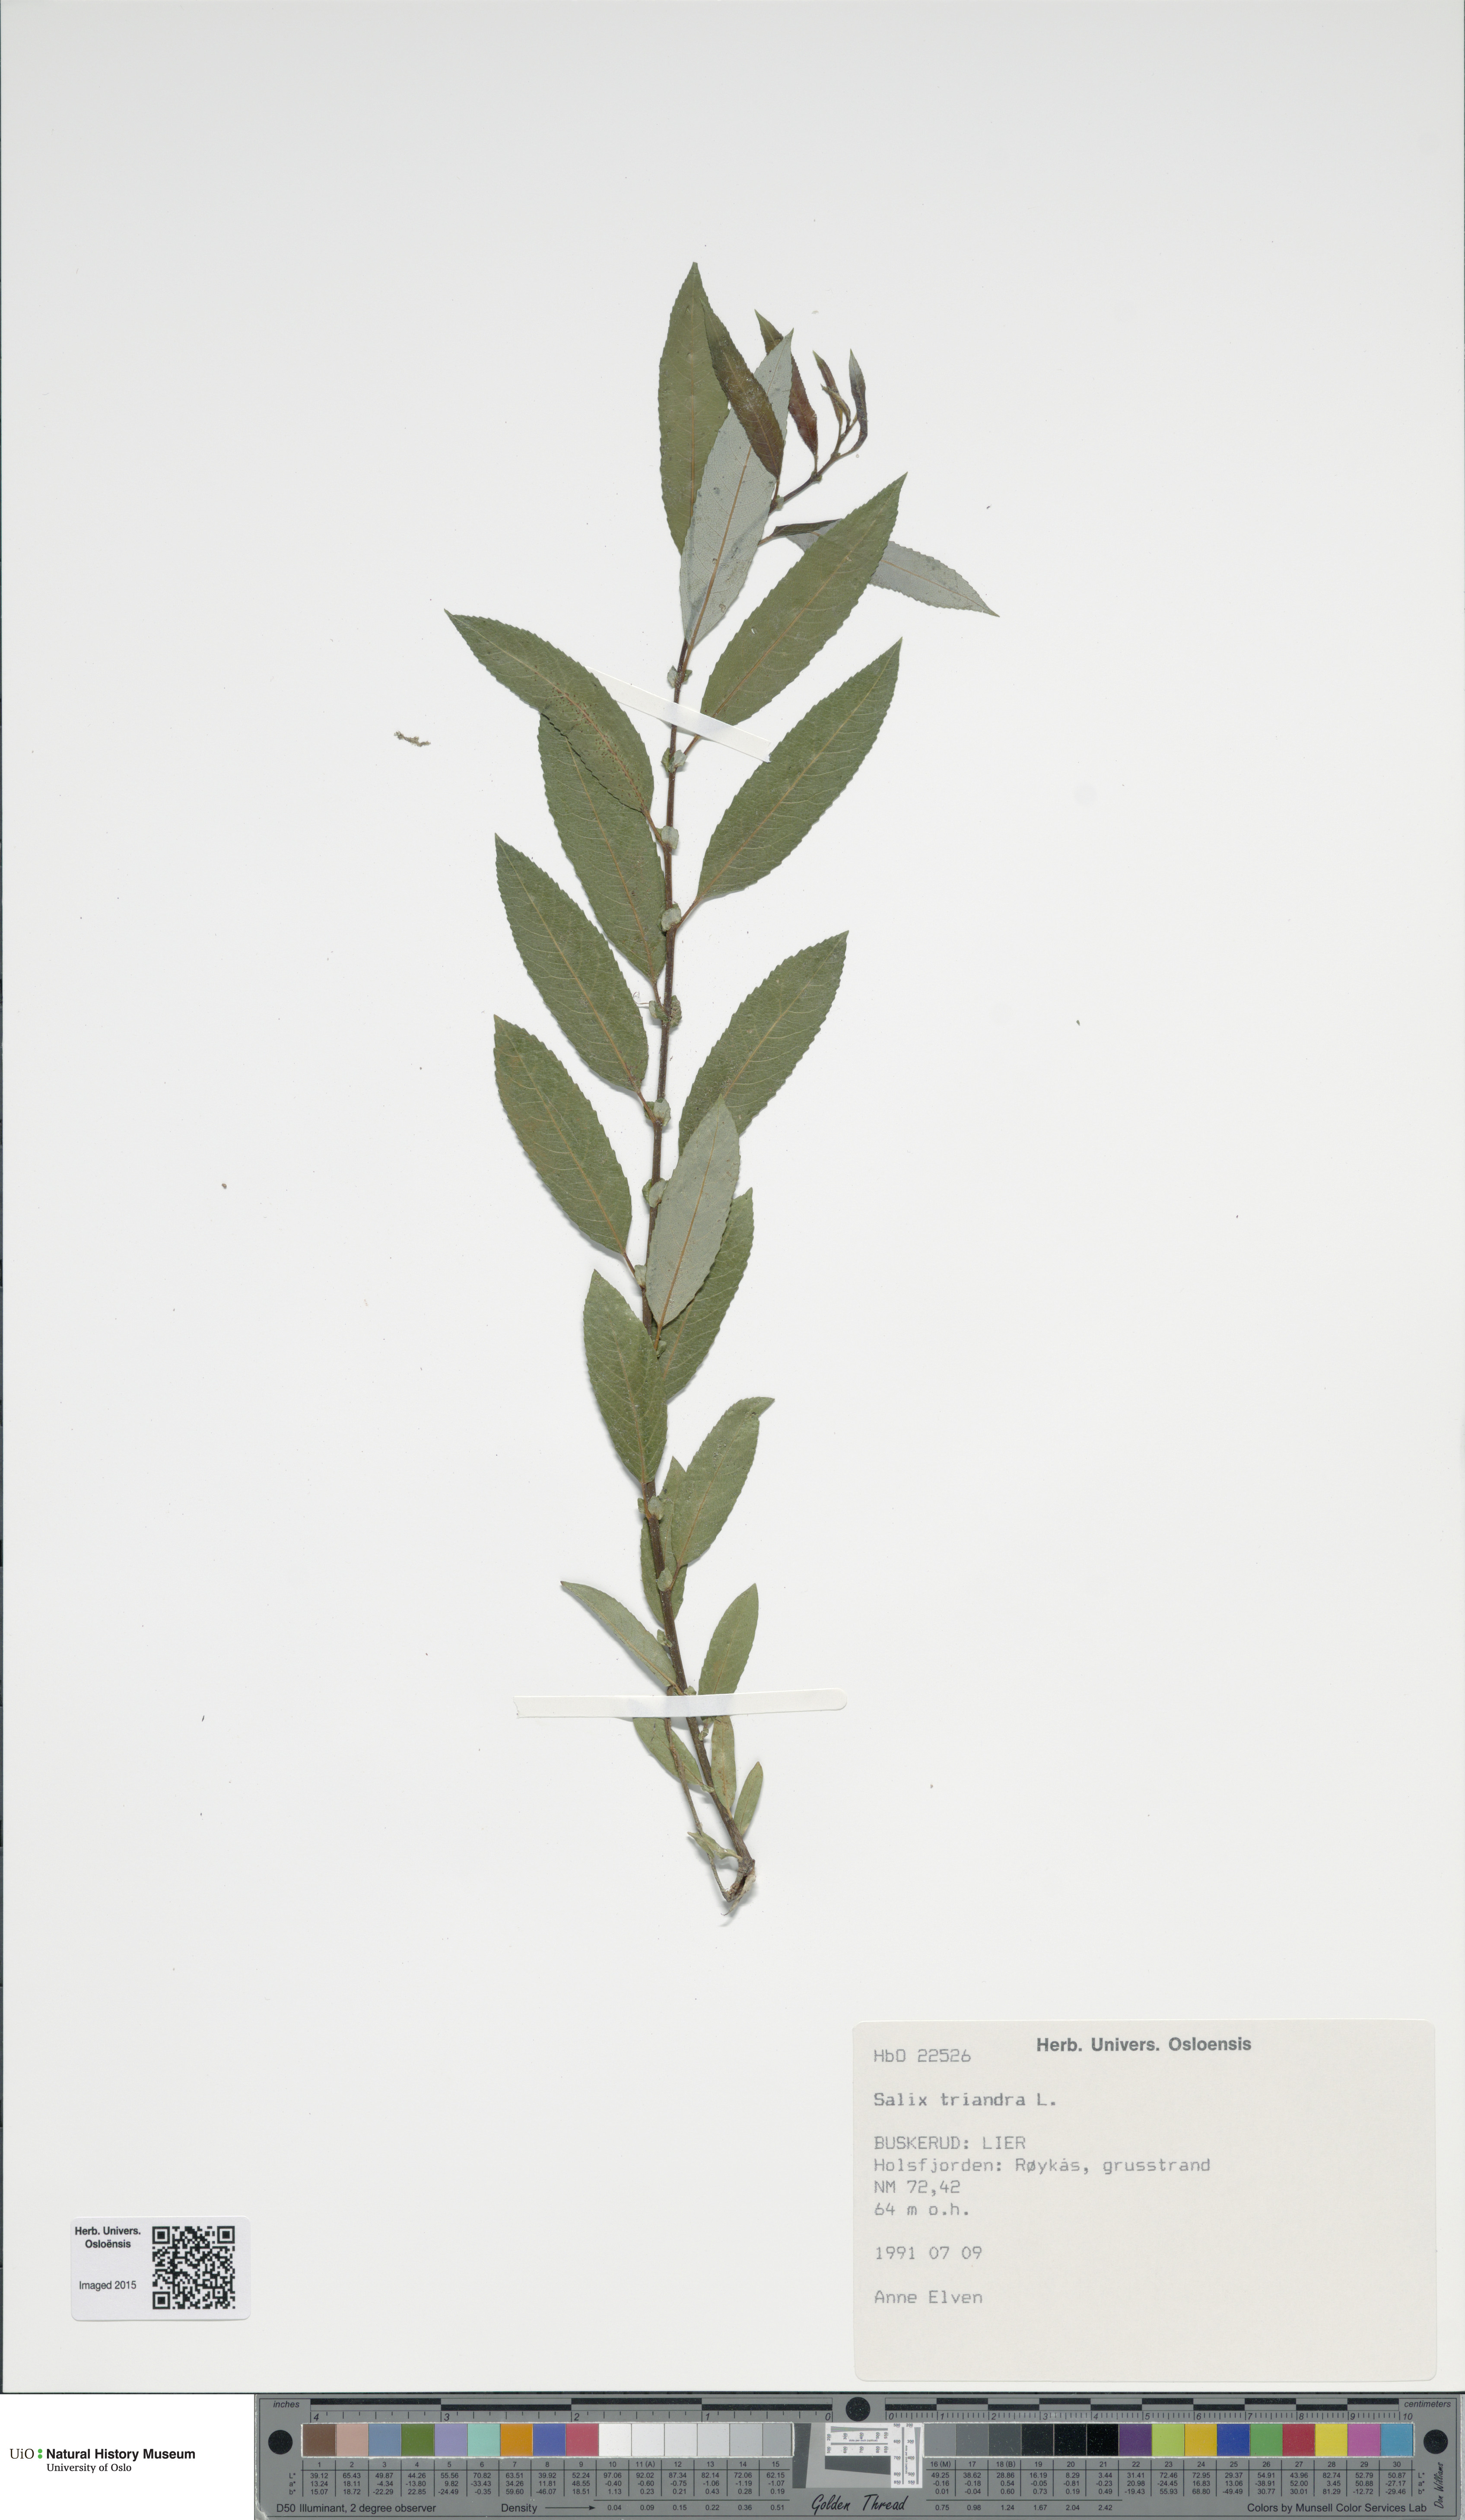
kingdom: Plantae
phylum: Tracheophyta
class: Magnoliopsida
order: Malpighiales
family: Salicaceae
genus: Salix
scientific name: Salix triandra
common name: Almond willow
